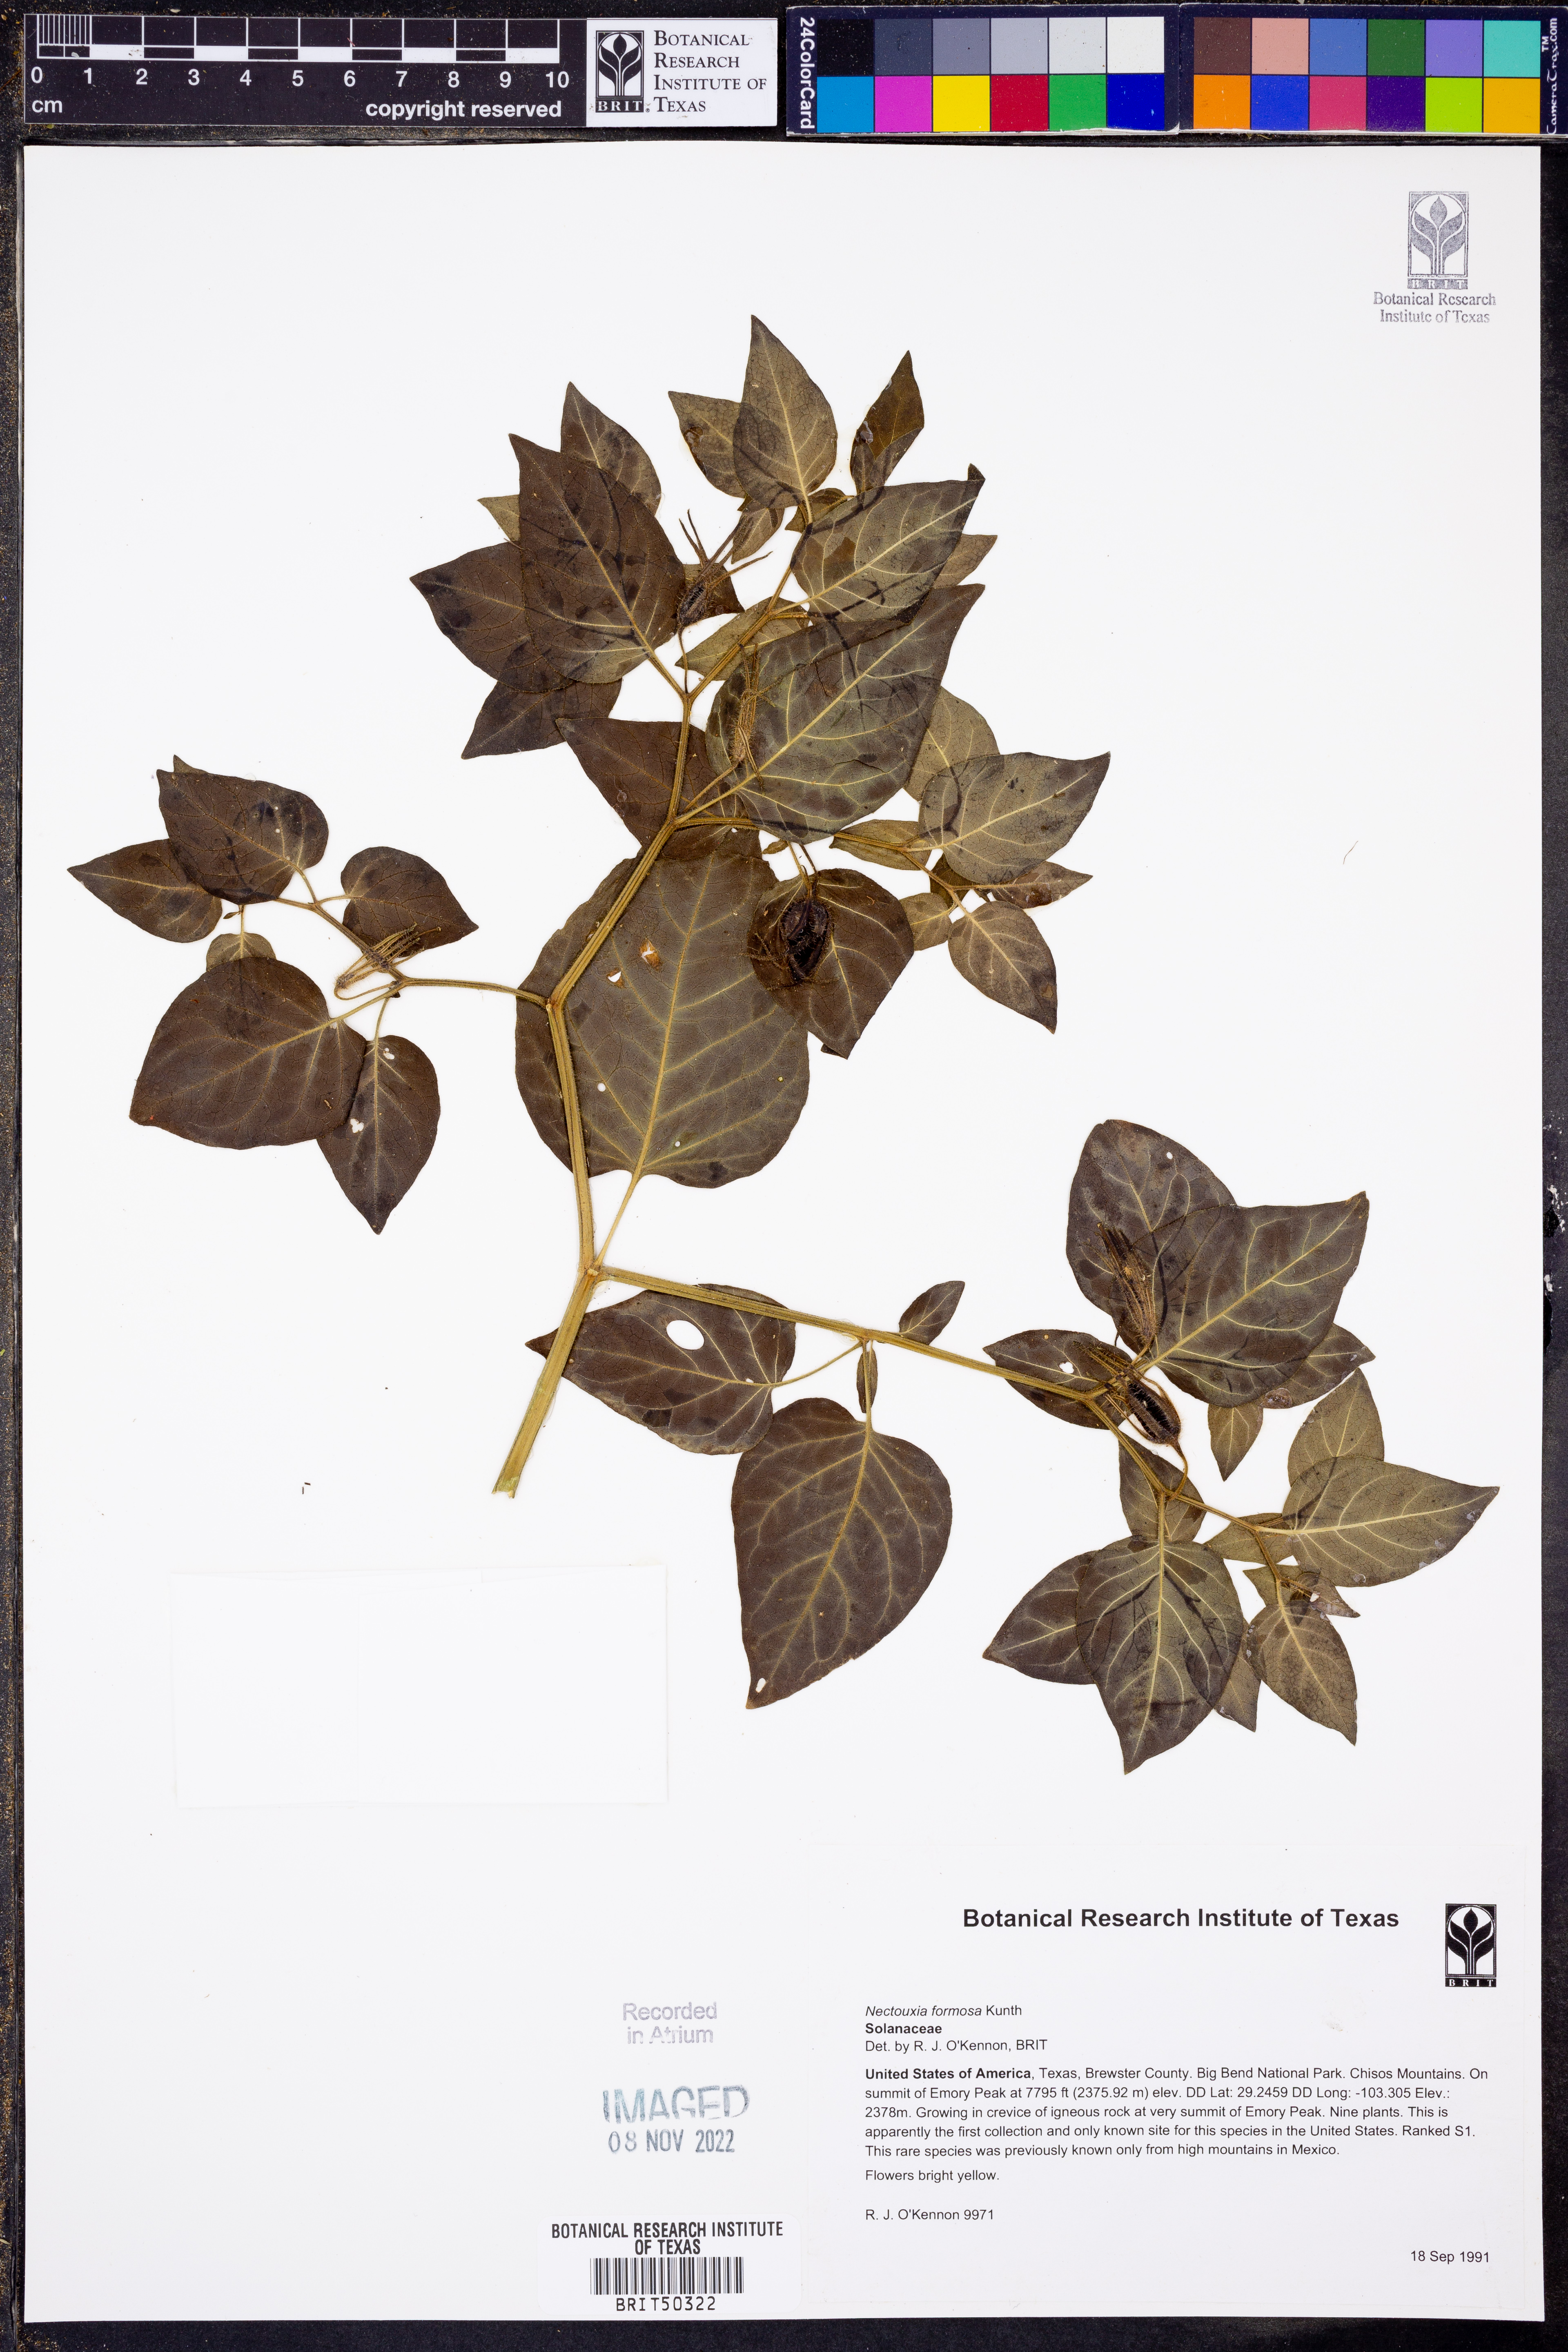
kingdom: Plantae
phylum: Tracheophyta
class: Magnoliopsida
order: Solanales
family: Solanaceae
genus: Nectouxia
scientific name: Nectouxia formosa
